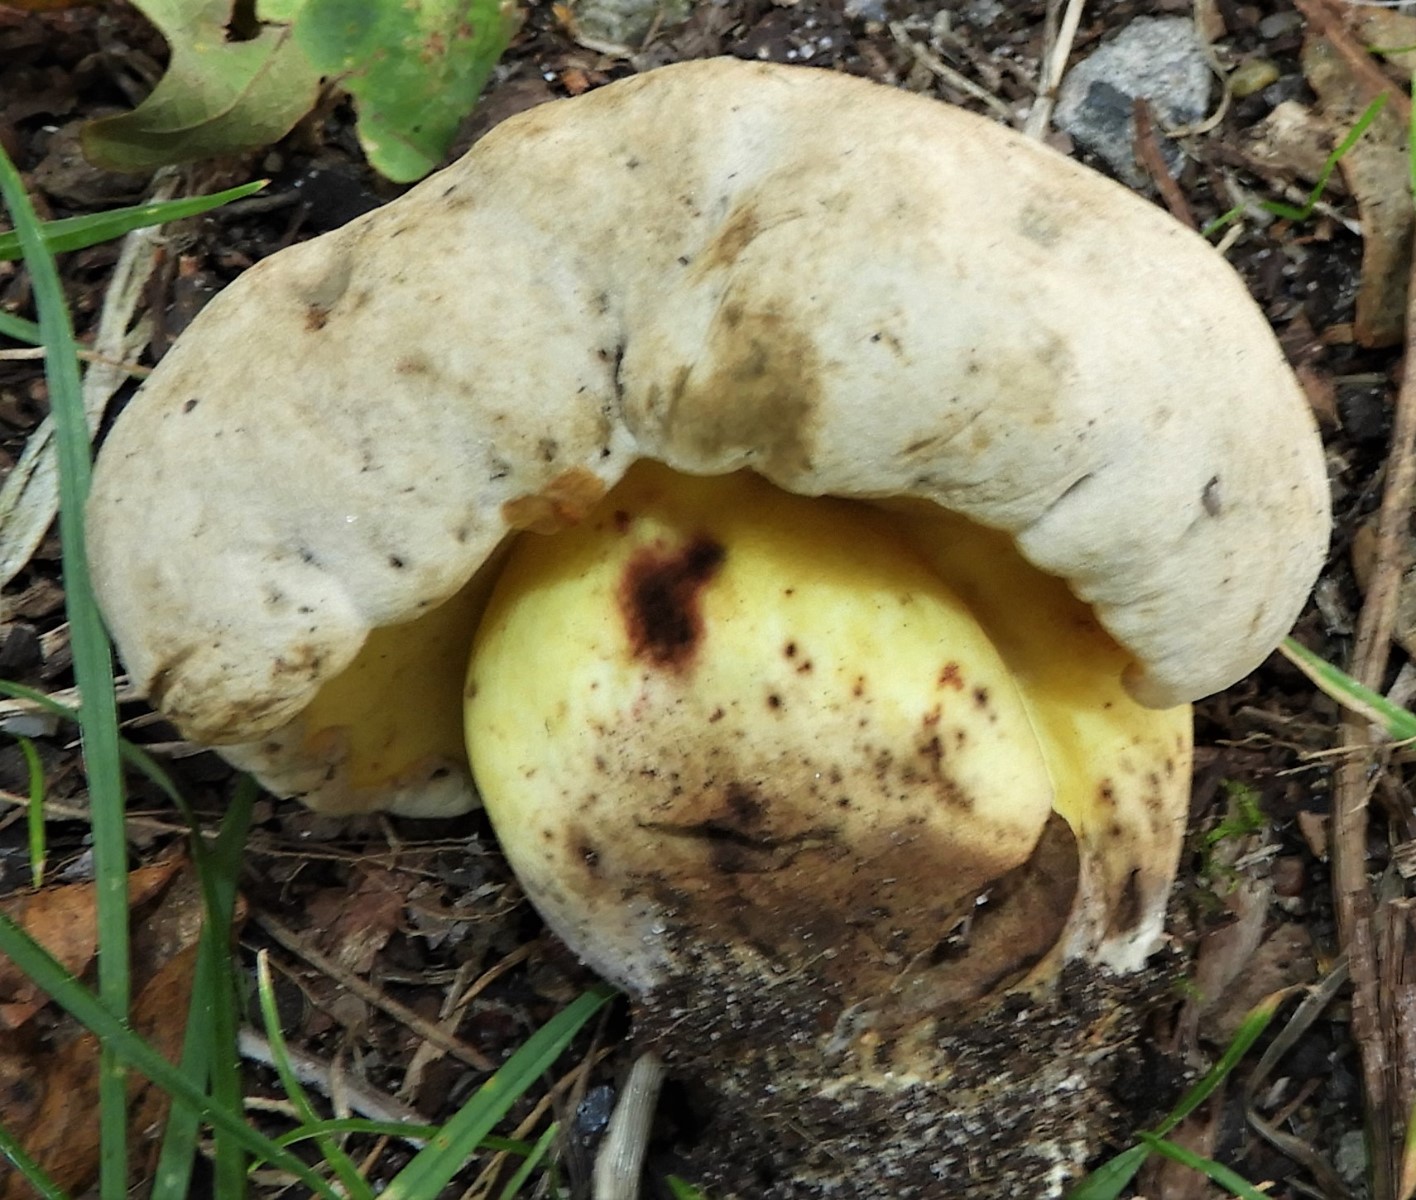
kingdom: Fungi
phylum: Basidiomycota
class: Agaricomycetes
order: Boletales
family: Boletaceae
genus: Caloboletus
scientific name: Caloboletus radicans
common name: rod-rørhat
